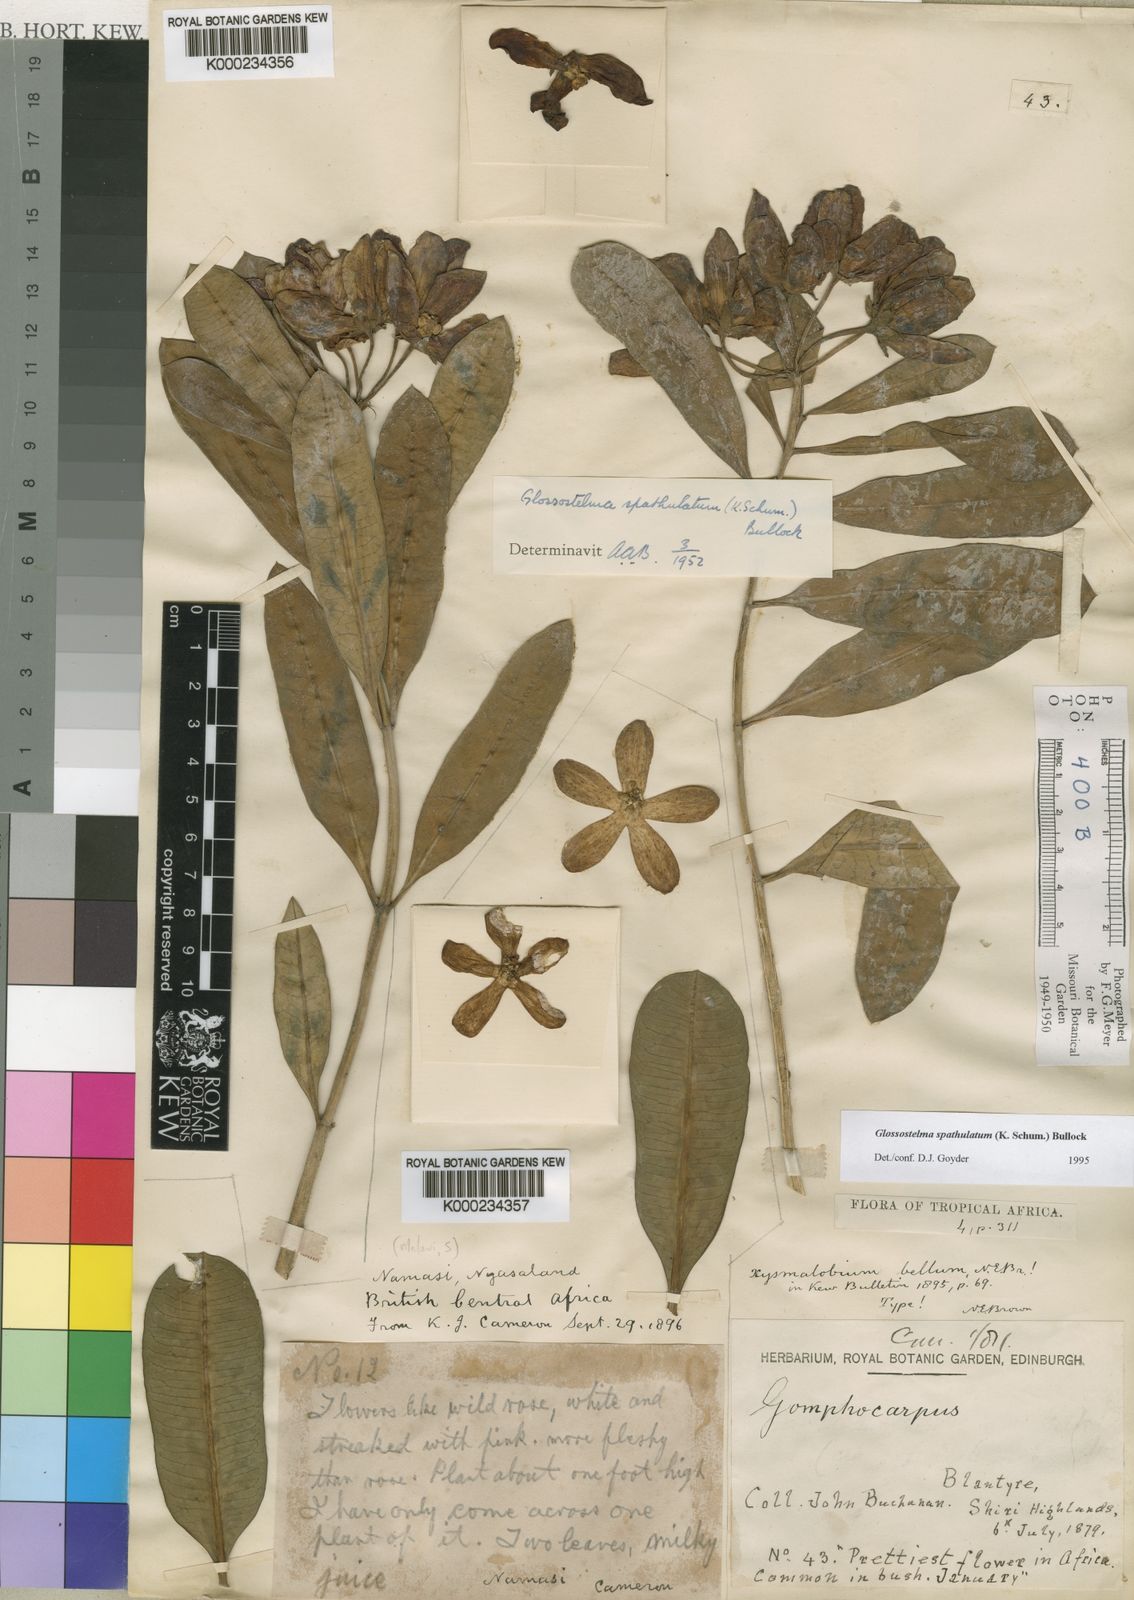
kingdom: Plantae
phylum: Tracheophyta
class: Magnoliopsida
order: Gentianales
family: Apocynaceae
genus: Glossostelma
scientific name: Glossostelma spathulatum
